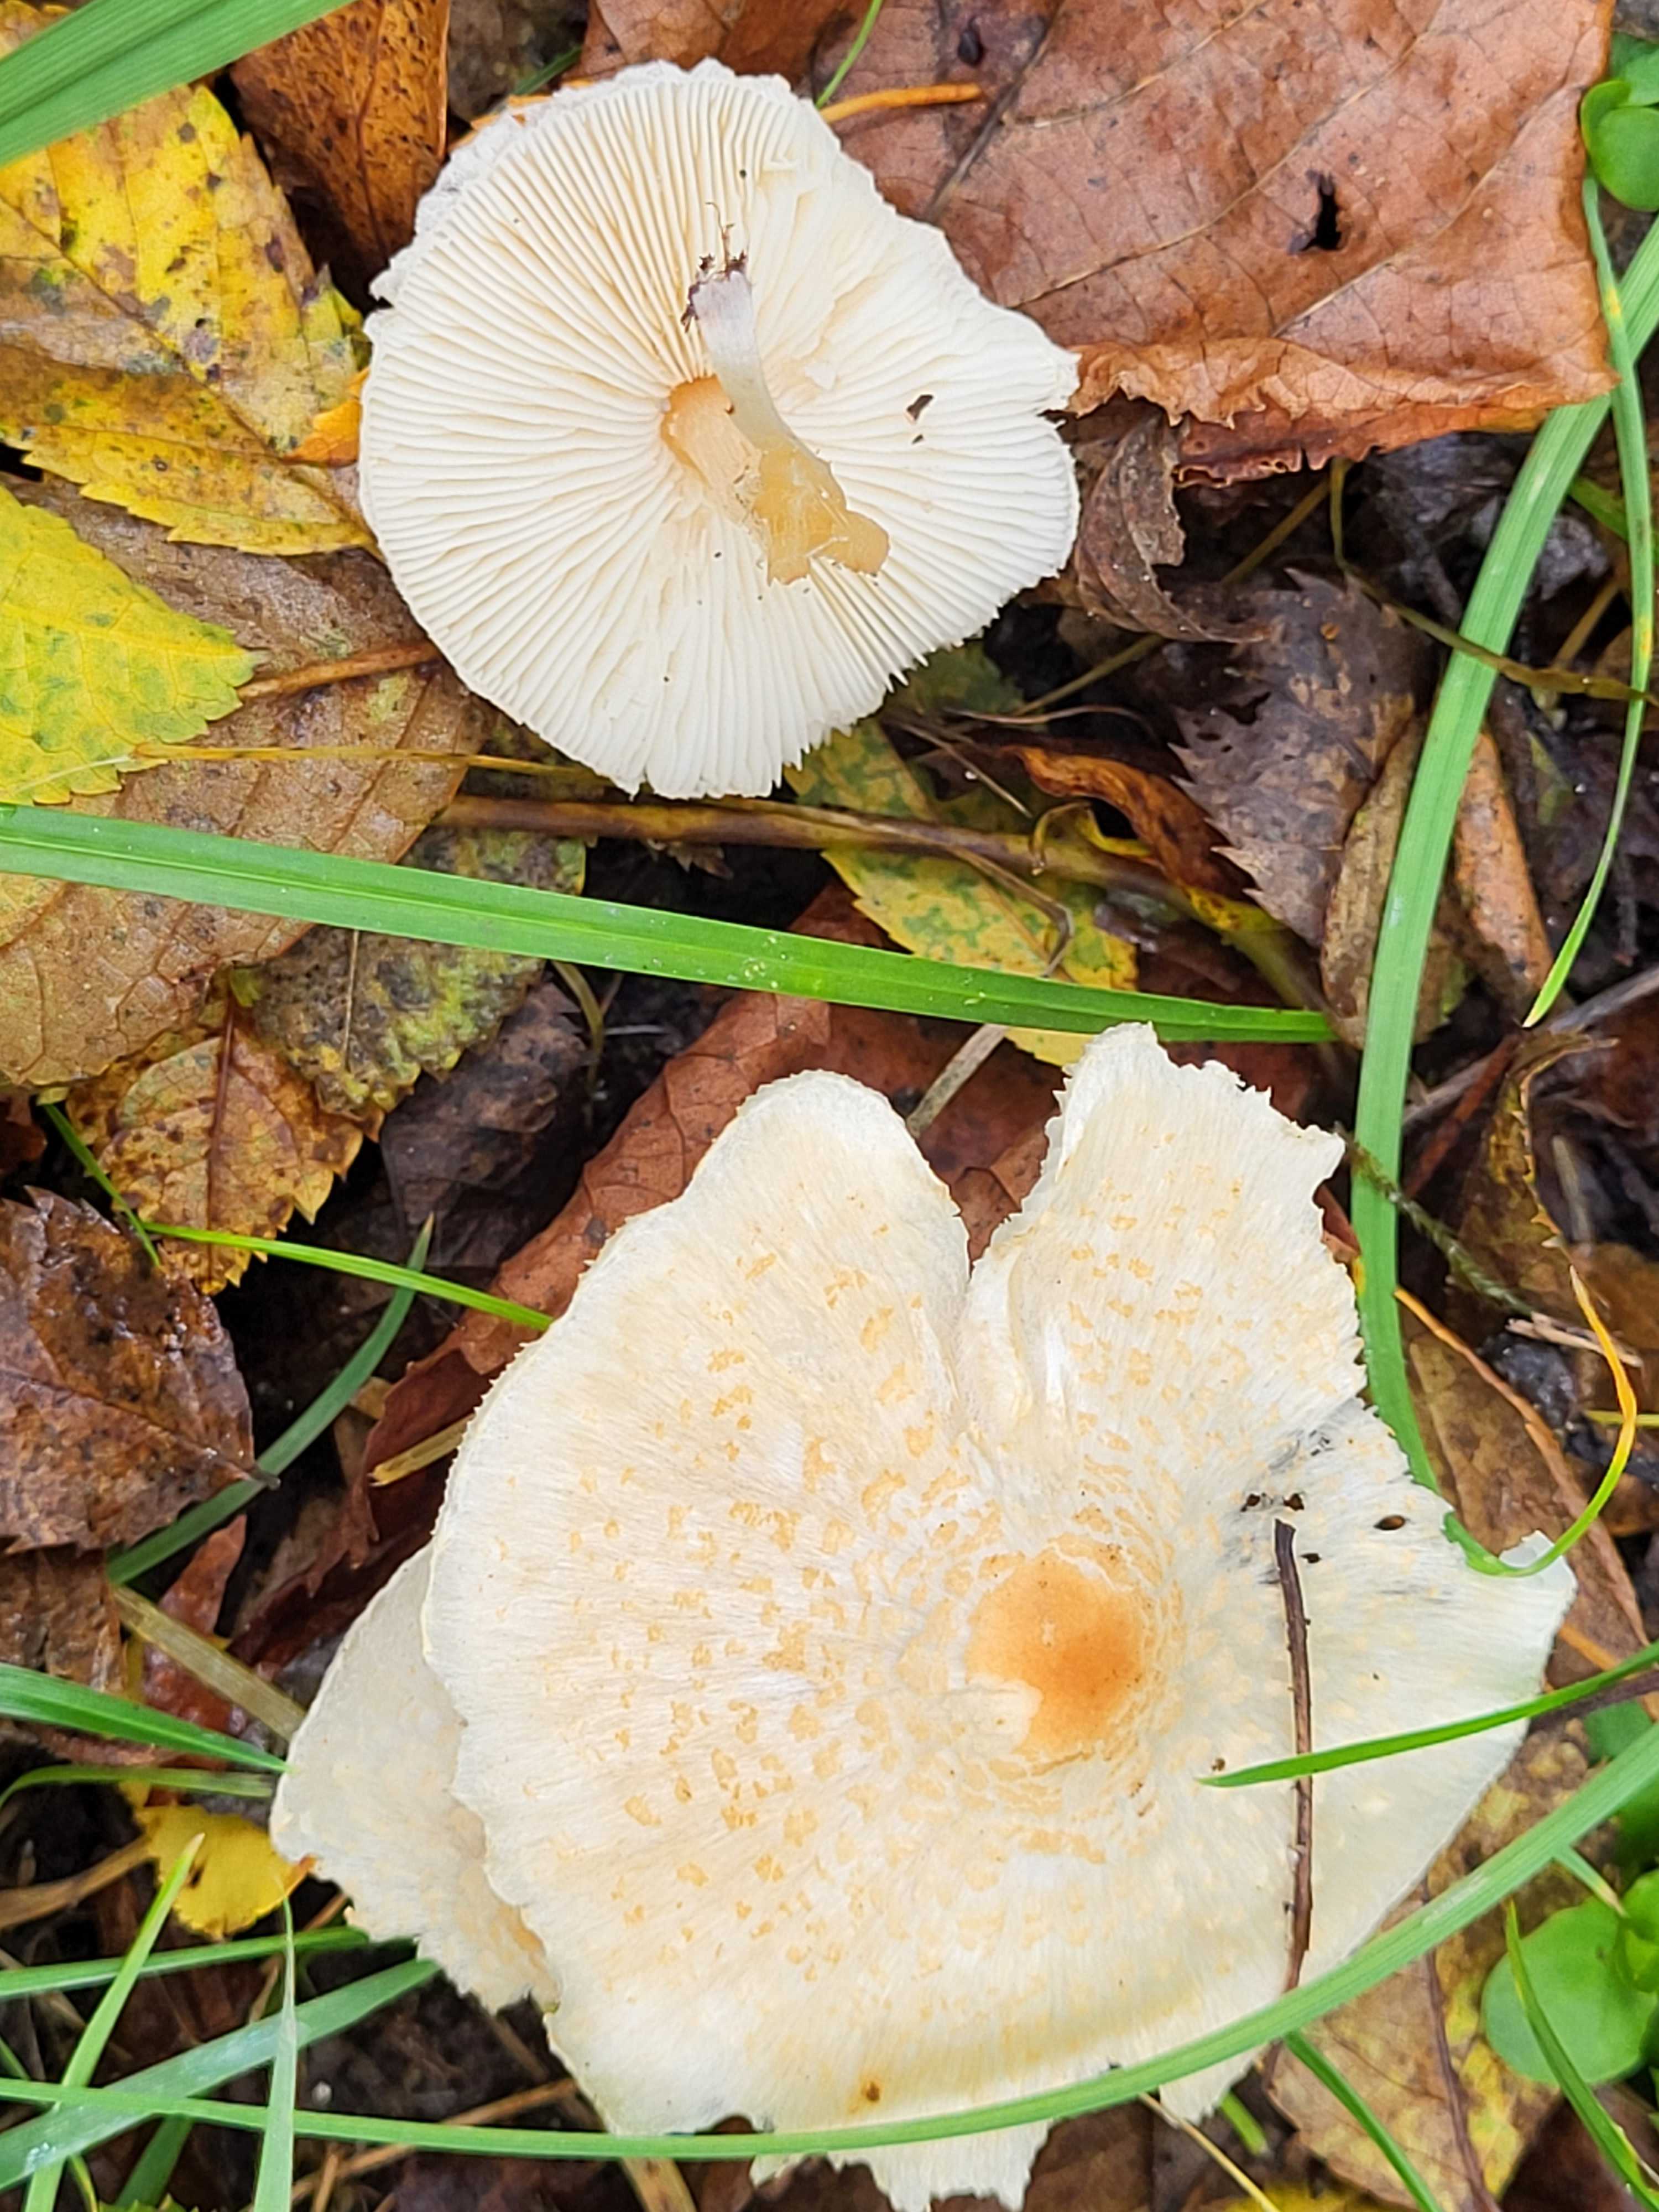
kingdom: Fungi
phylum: Basidiomycota
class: Agaricomycetes
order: Agaricales
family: Agaricaceae
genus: Lepiota
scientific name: Lepiota cristata
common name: stinkende parasolhat
